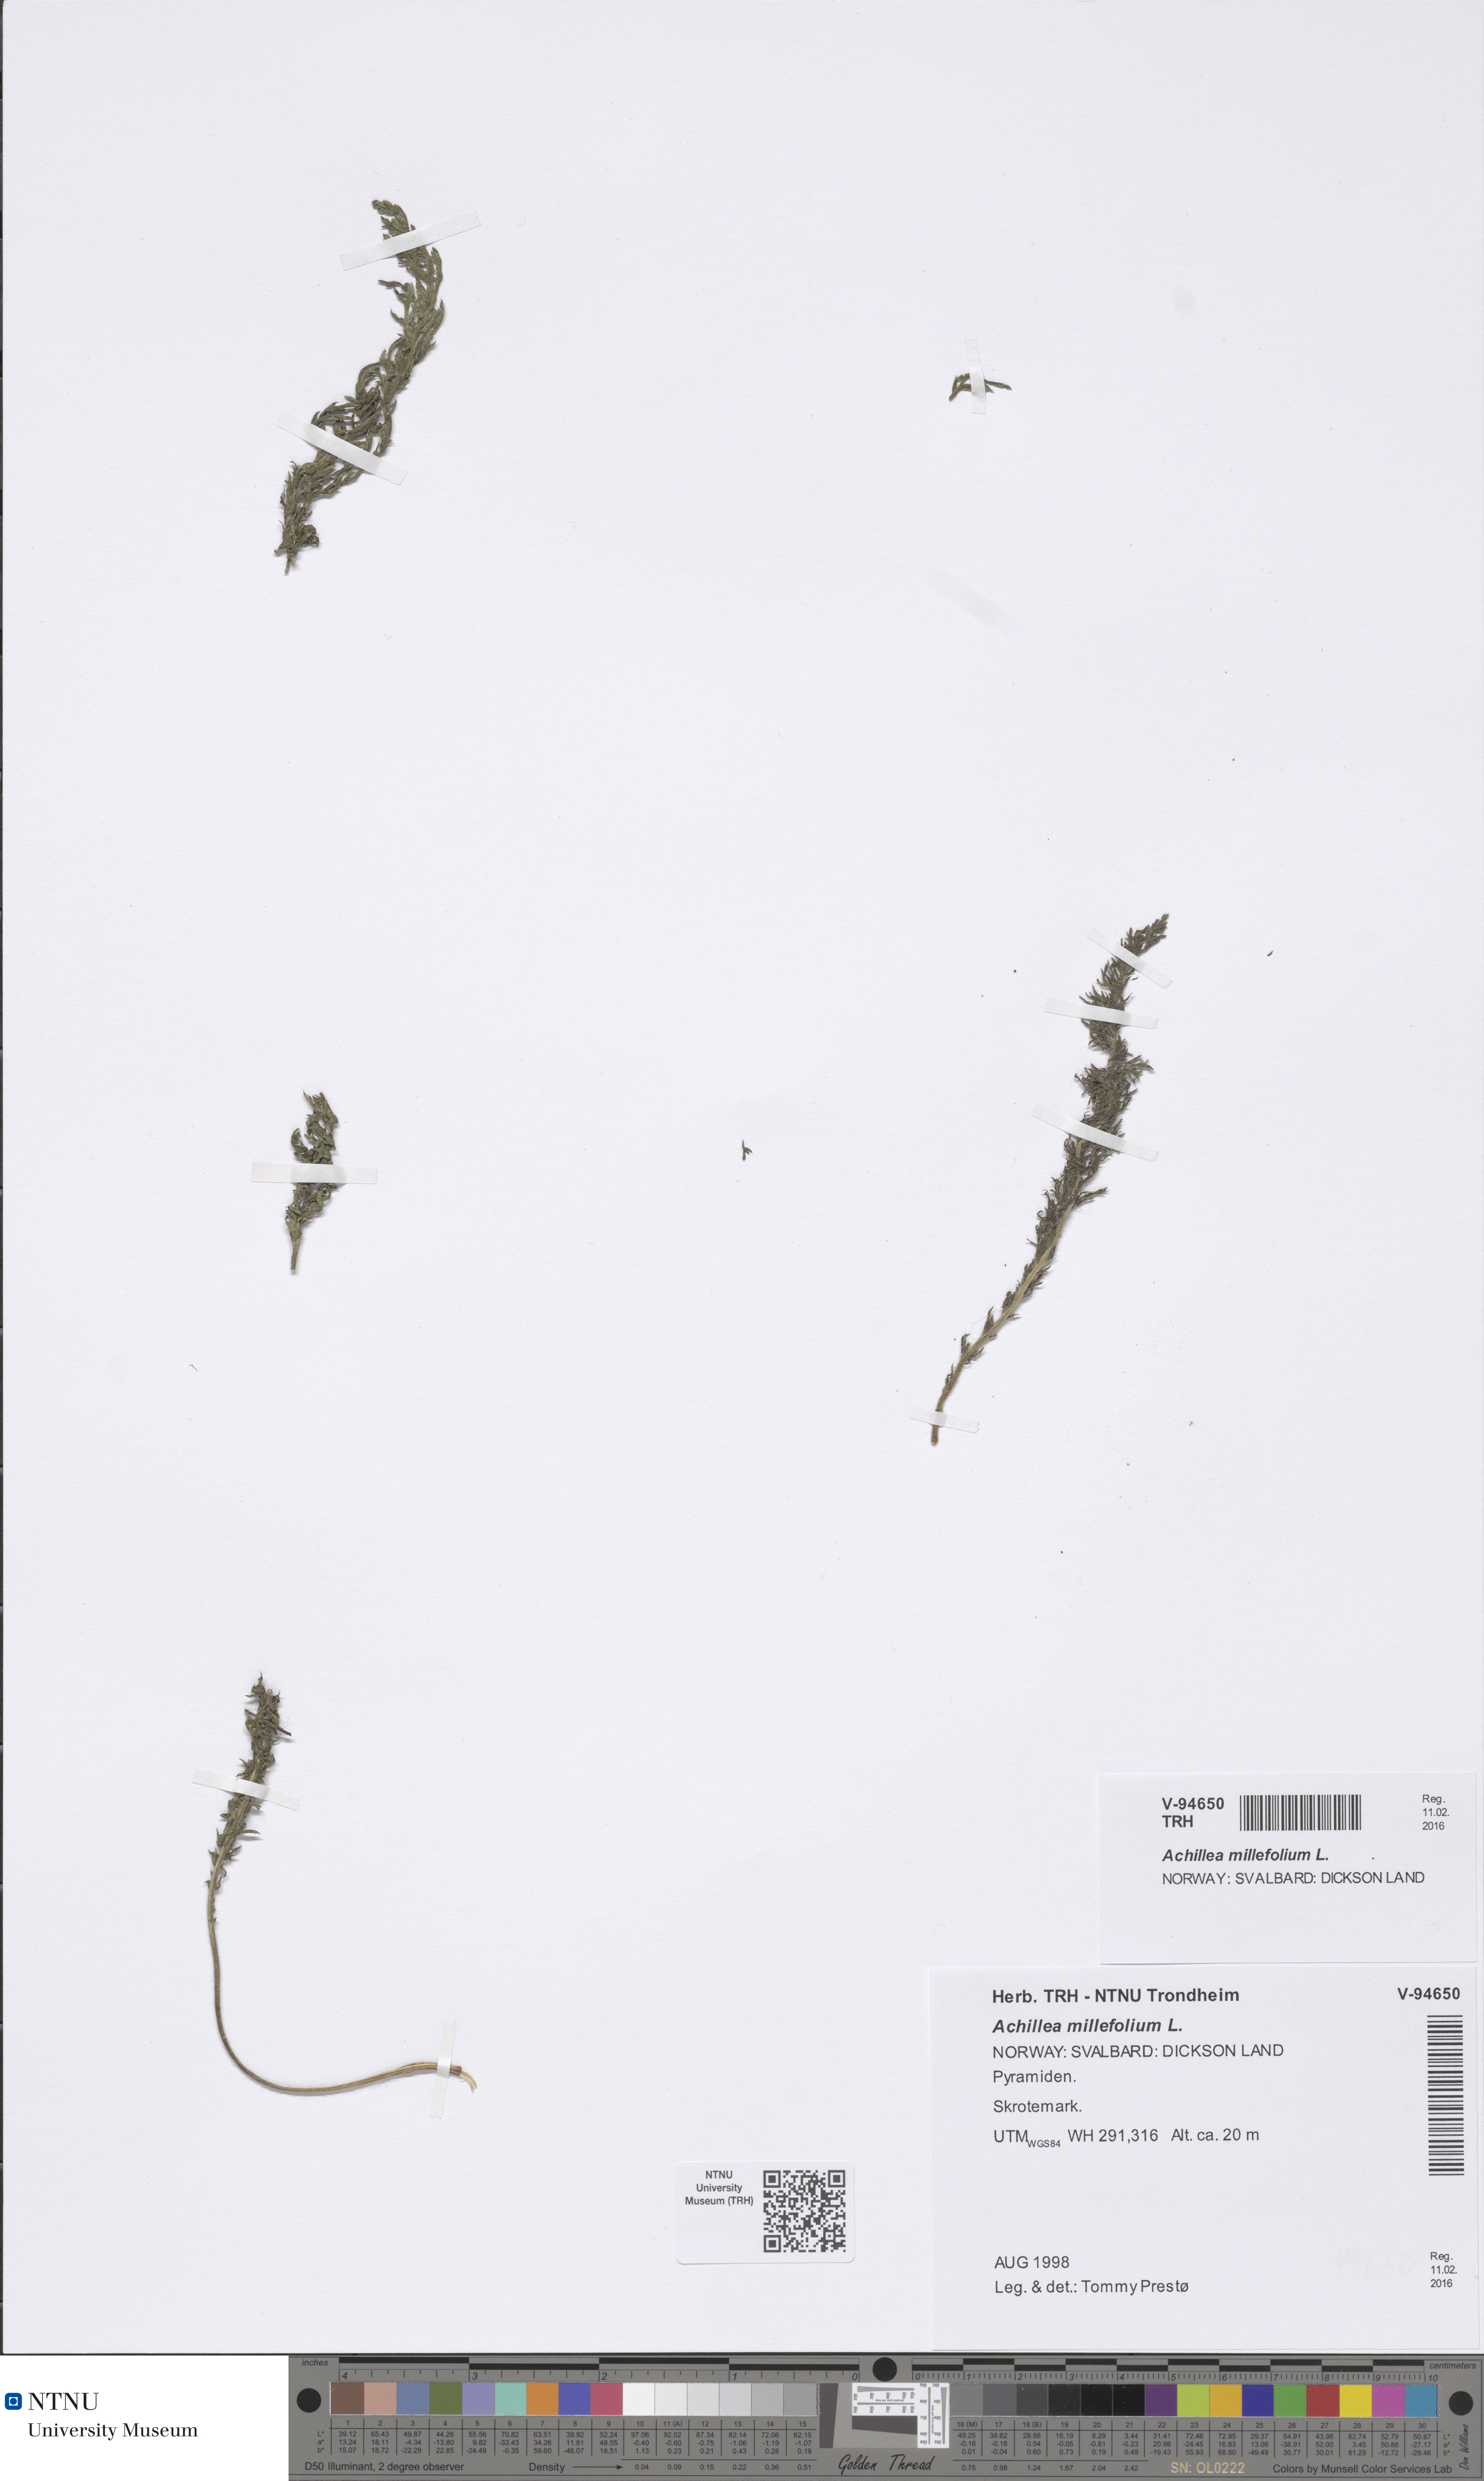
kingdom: Plantae
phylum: Tracheophyta
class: Magnoliopsida
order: Asterales
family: Asteraceae
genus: Achillea
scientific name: Achillea millefolium
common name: Yarrow
